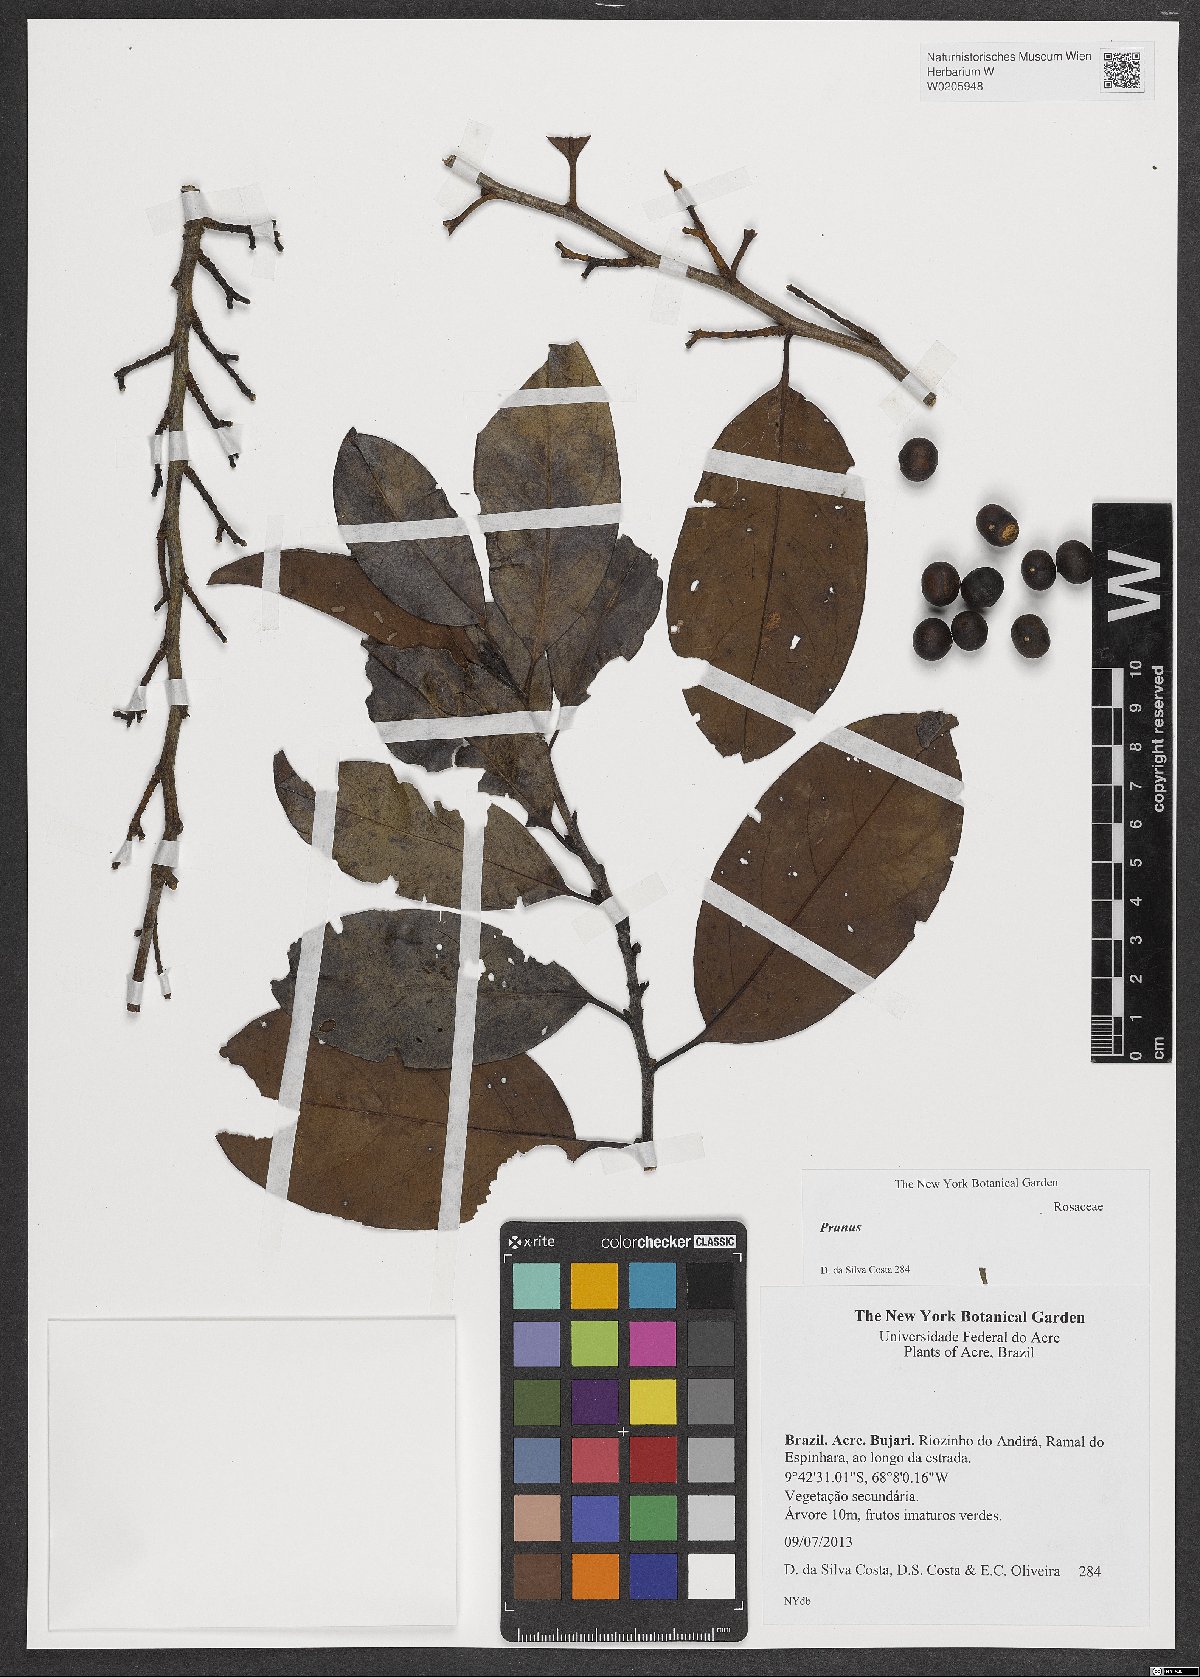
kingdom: Plantae
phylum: Tracheophyta
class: Magnoliopsida
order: Rosales
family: Rosaceae
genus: Prunus
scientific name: Prunus
